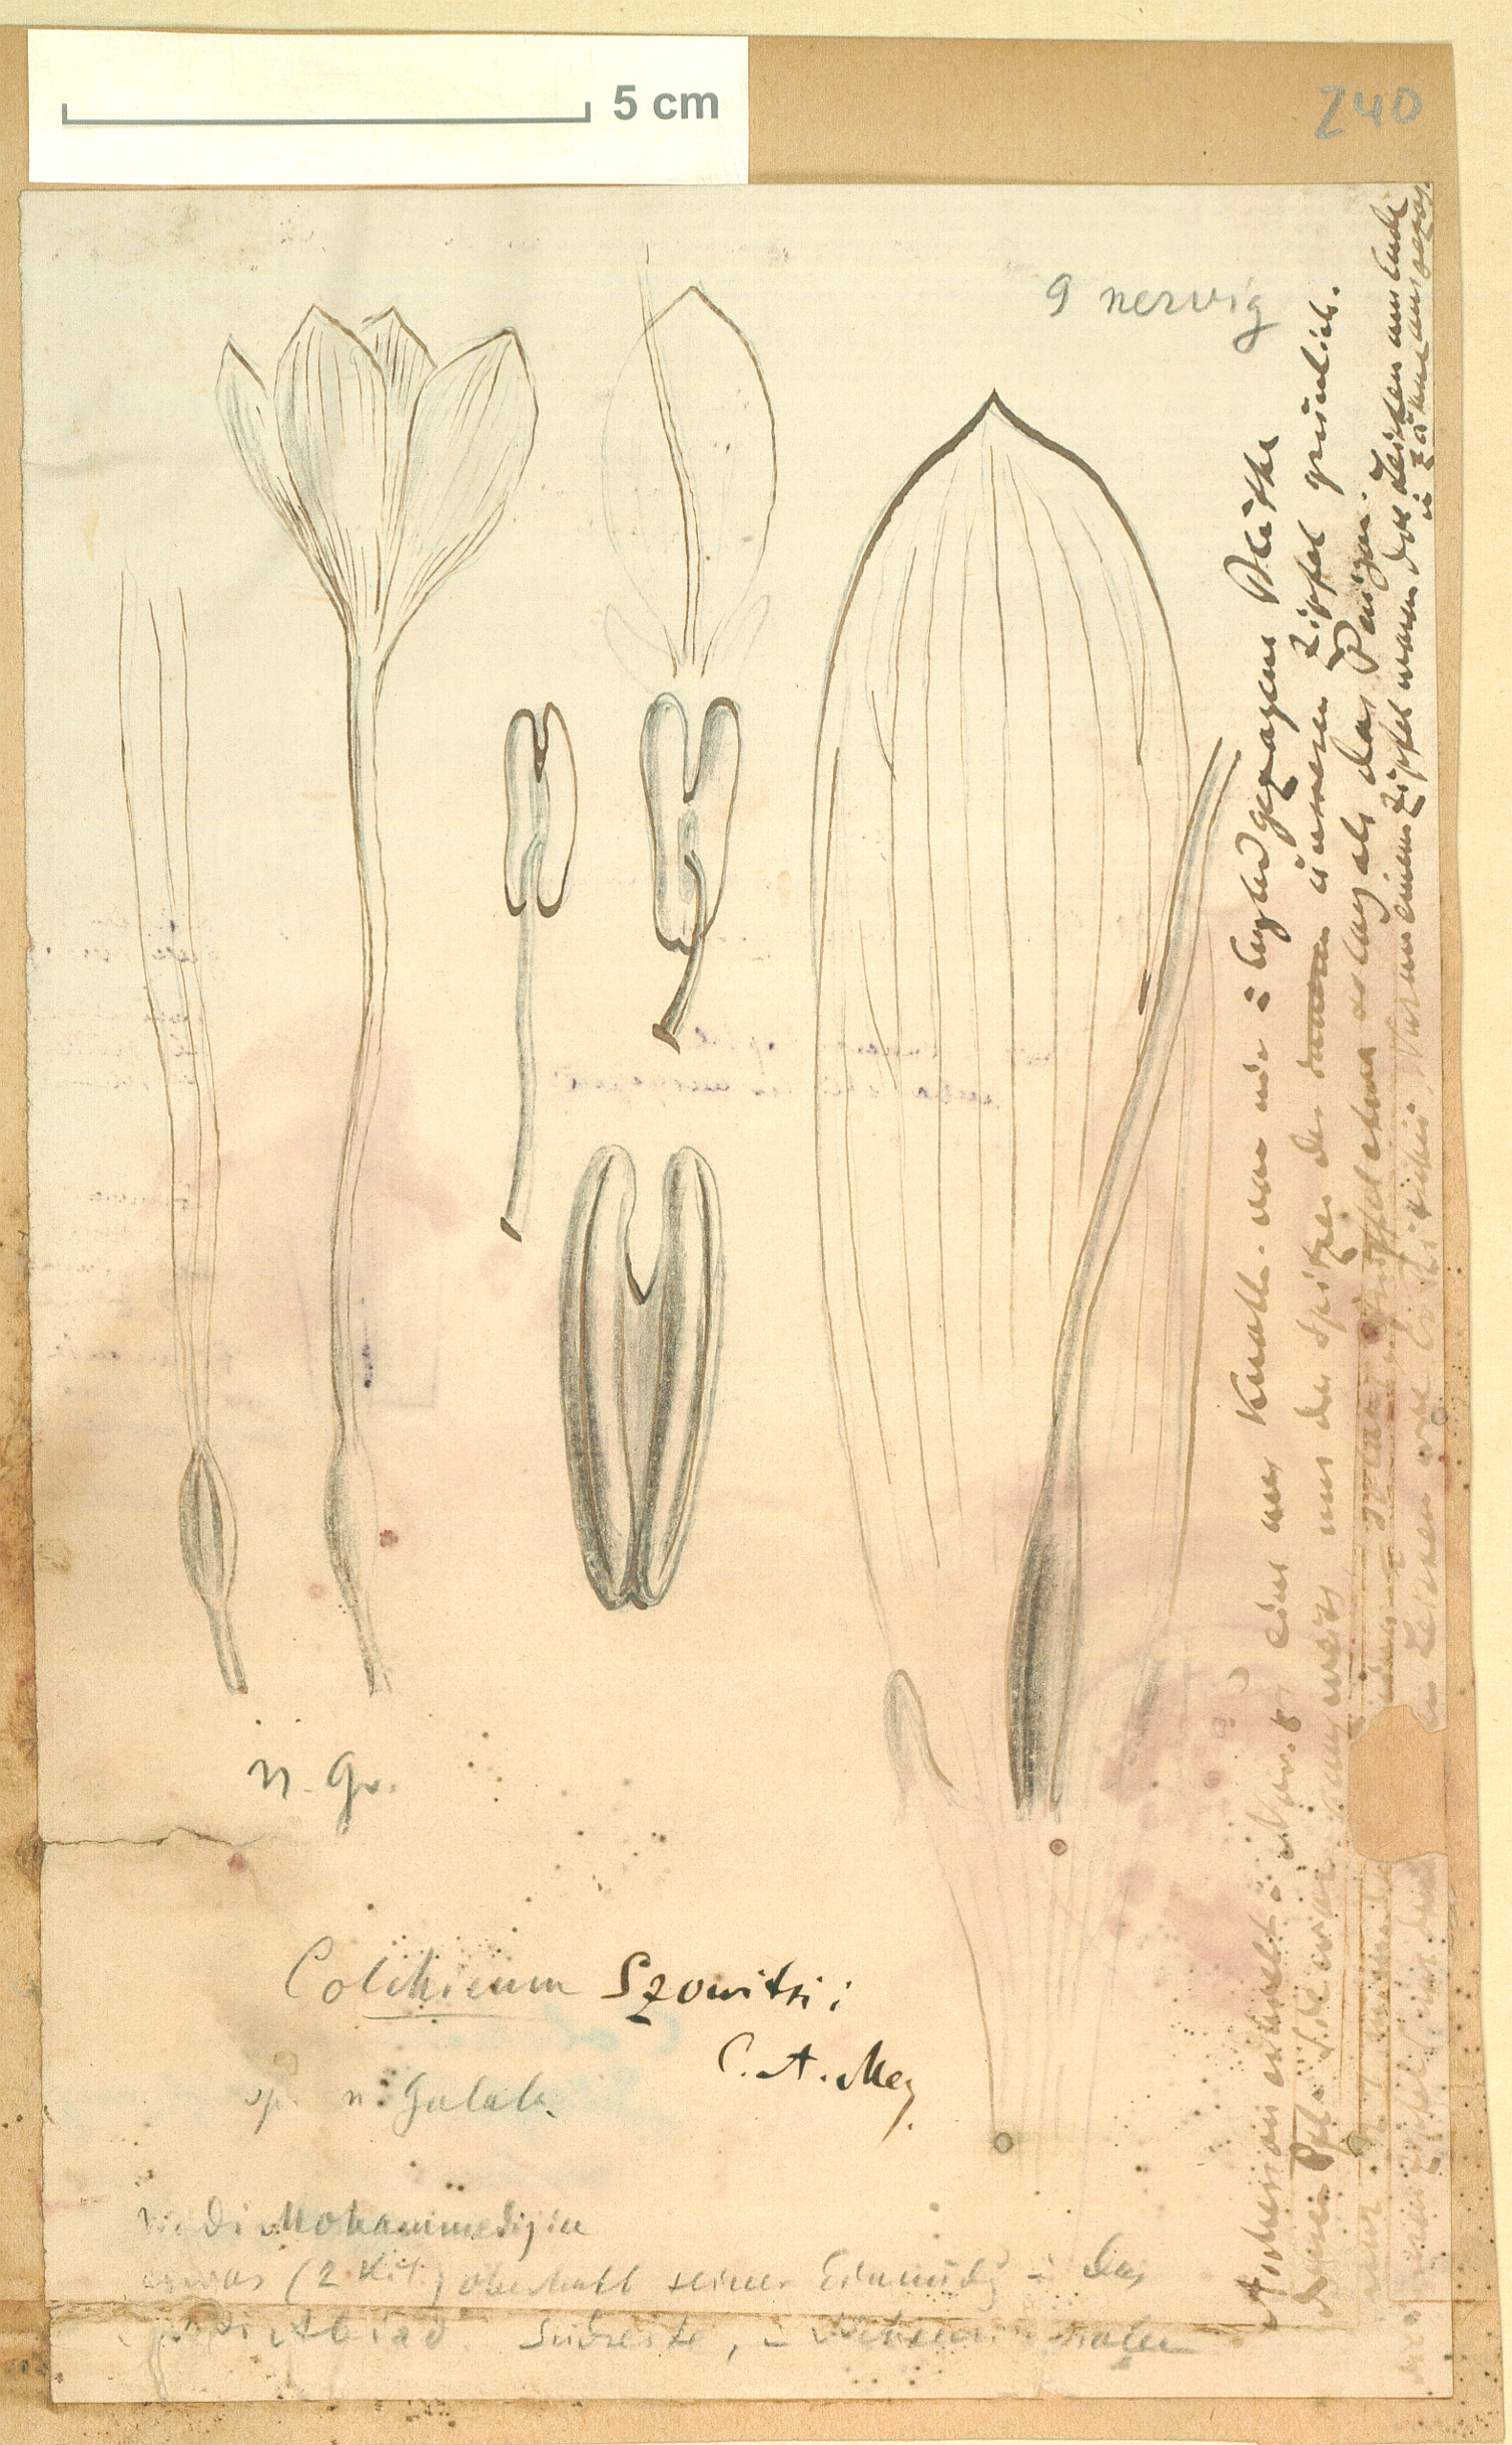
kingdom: Plantae
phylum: Tracheophyta
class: Liliopsida
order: Liliales
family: Colchicaceae
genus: Colchicum
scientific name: Colchicum szovitsii
